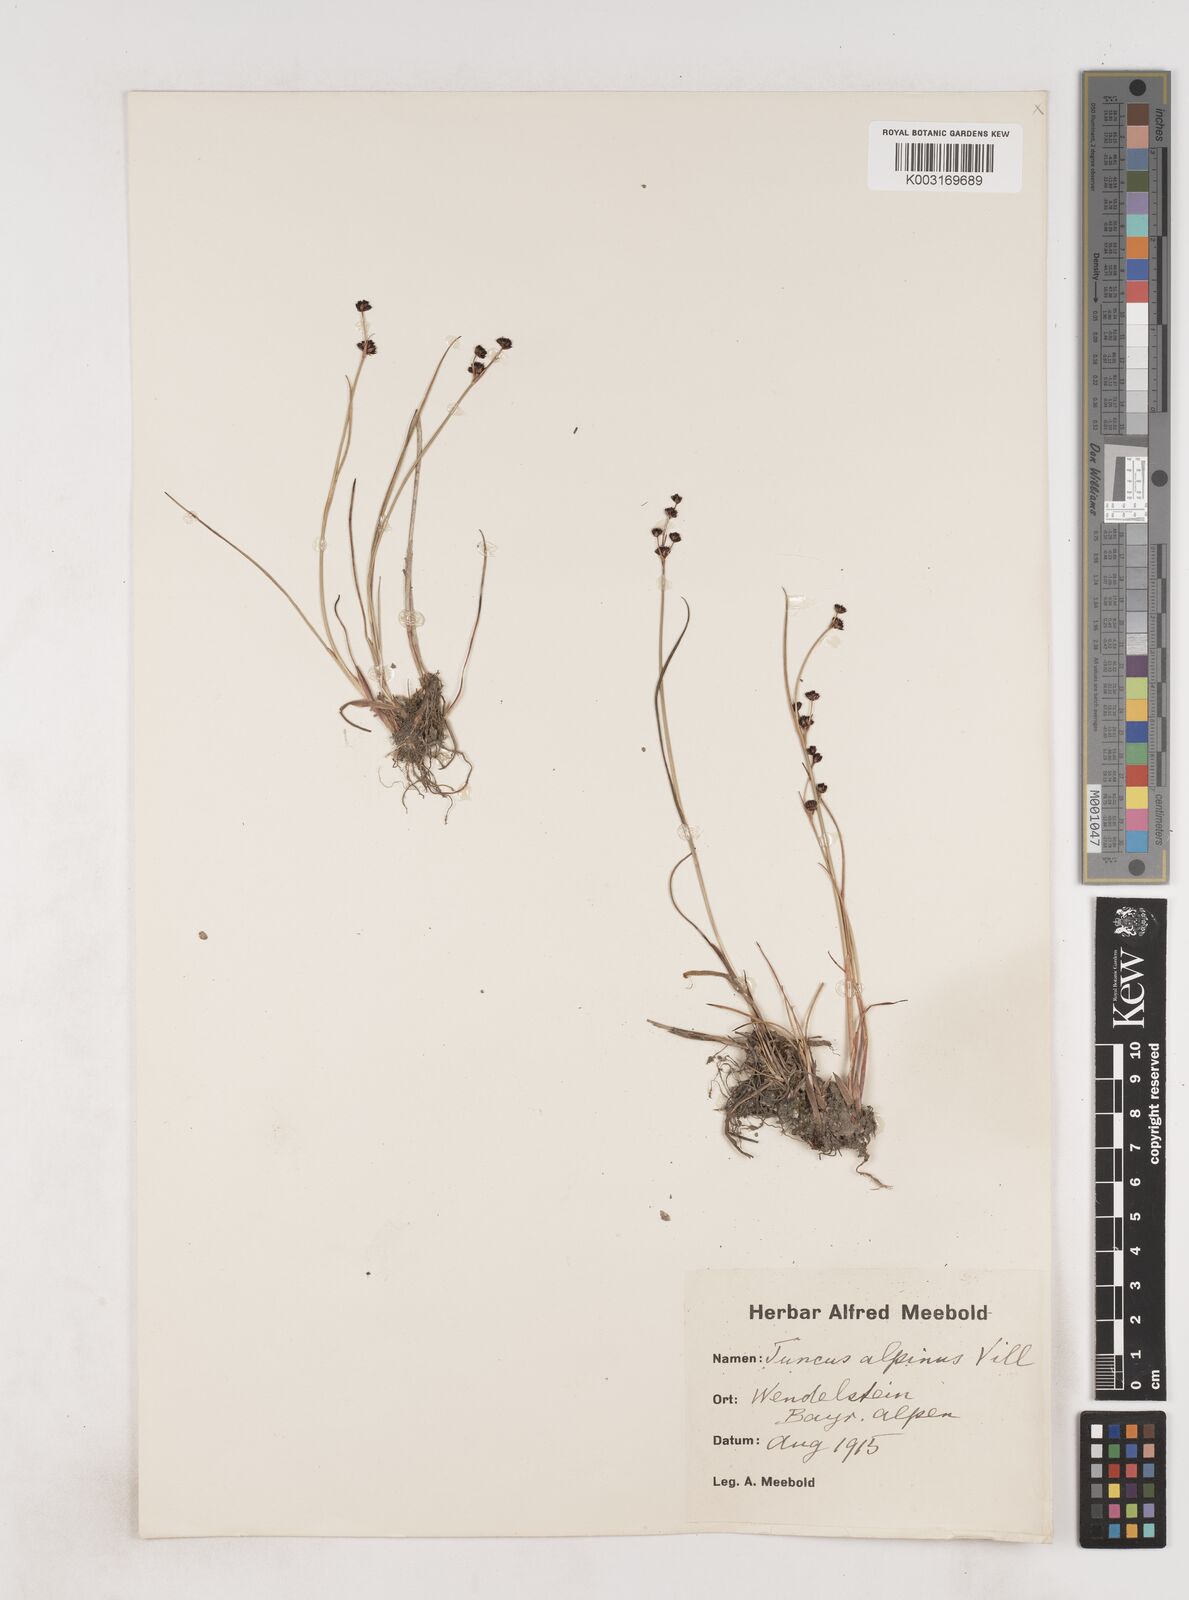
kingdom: Plantae
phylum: Tracheophyta
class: Liliopsida
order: Poales
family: Juncaceae
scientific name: Juncaceae
